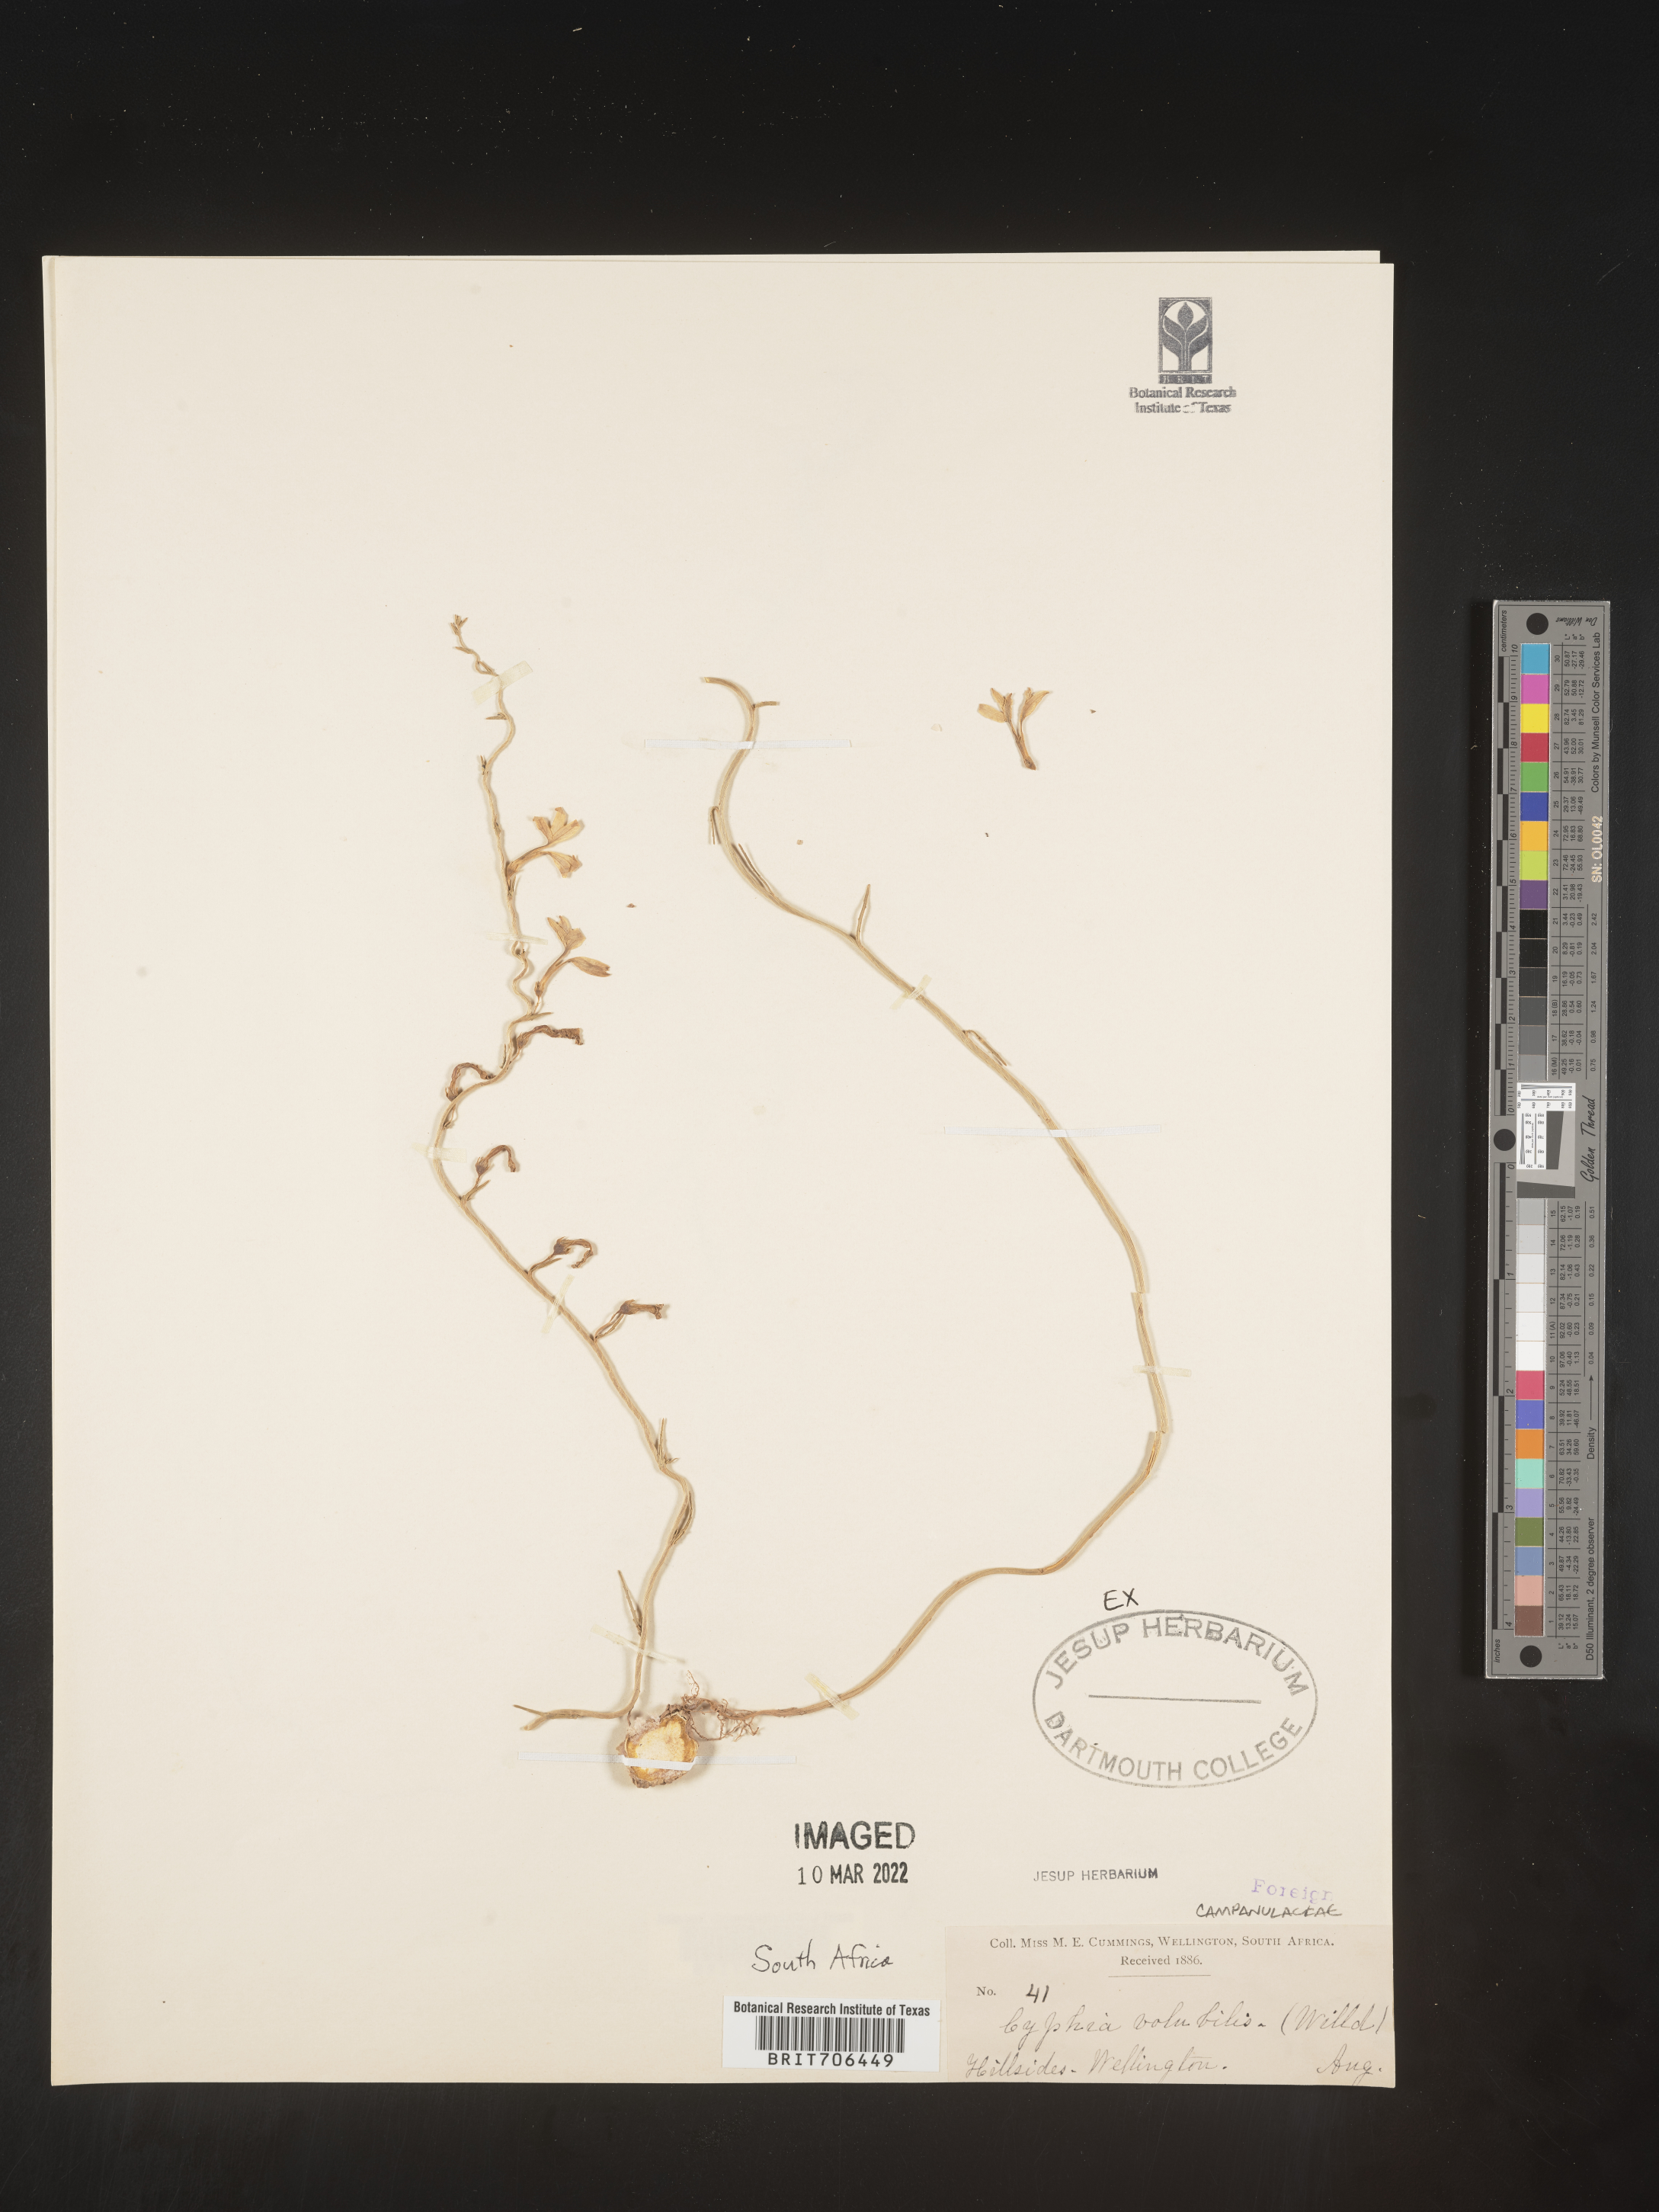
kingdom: Plantae
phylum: Tracheophyta
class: Magnoliopsida
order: Asterales
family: Campanulaceae
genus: Cyphia
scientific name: Cyphia
